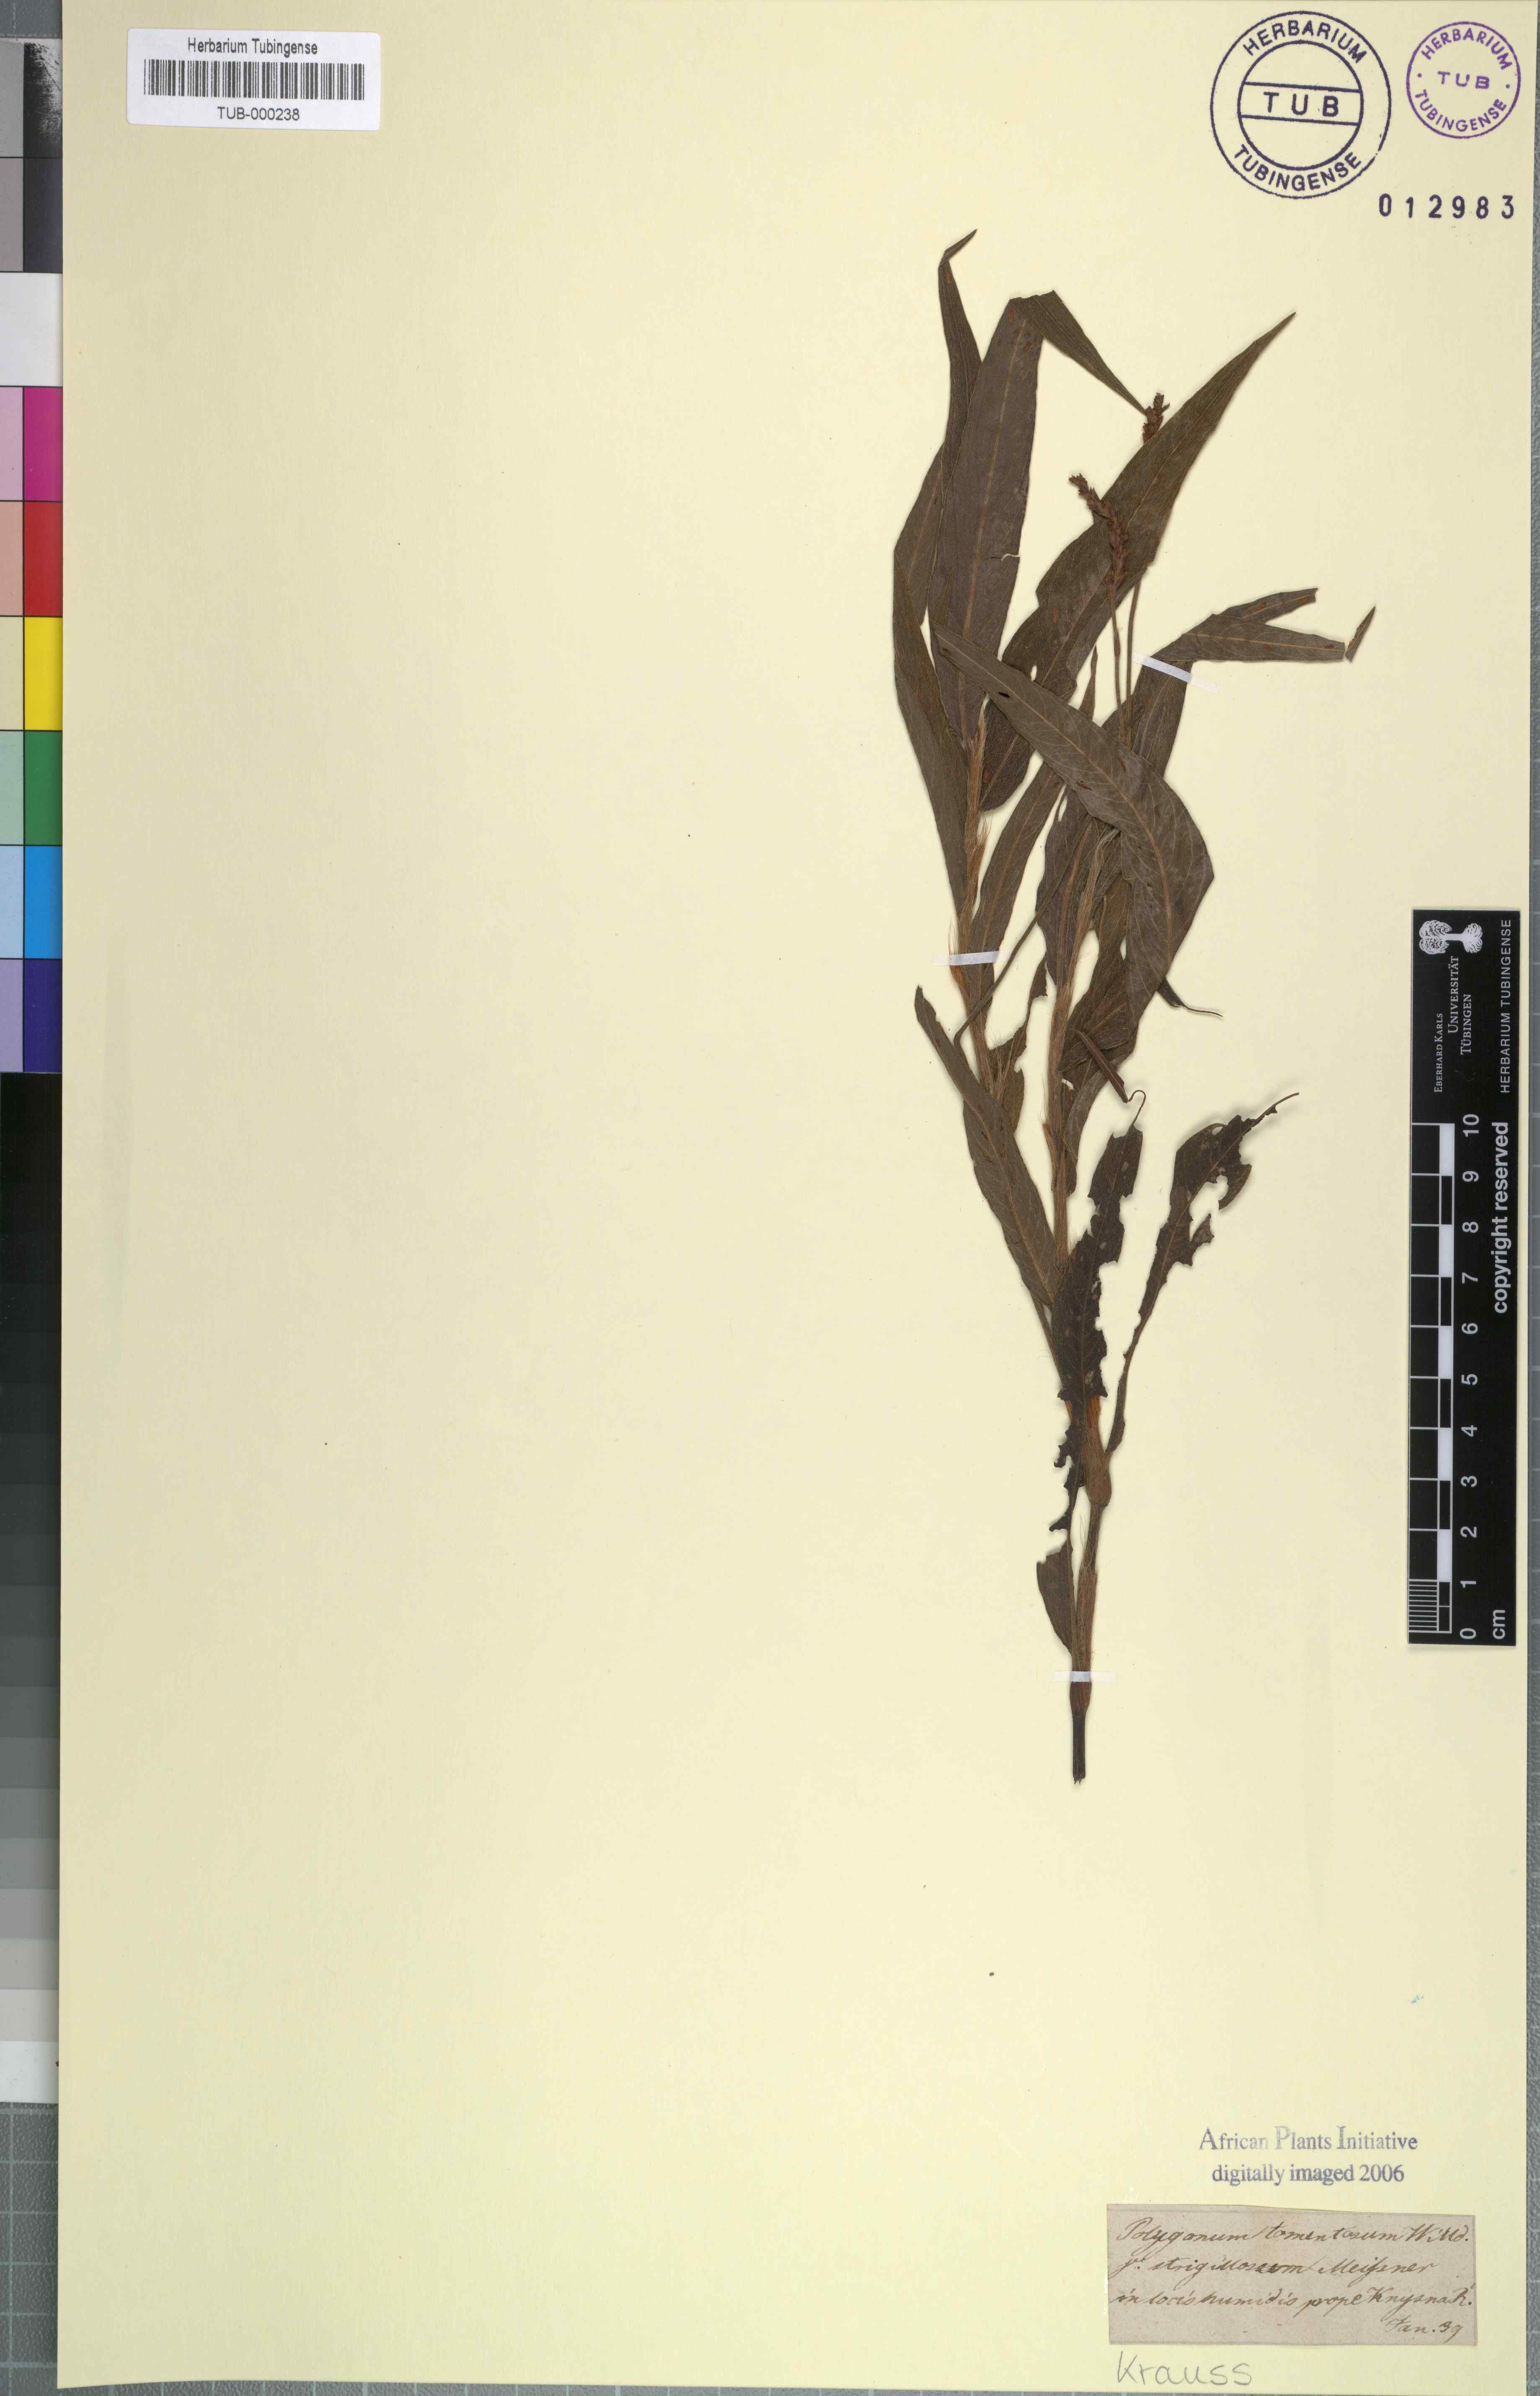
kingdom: Plantae
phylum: Tracheophyta
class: Magnoliopsida
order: Caryophyllales
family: Polygonaceae
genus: Persicaria
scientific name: Persicaria madagascariensis
